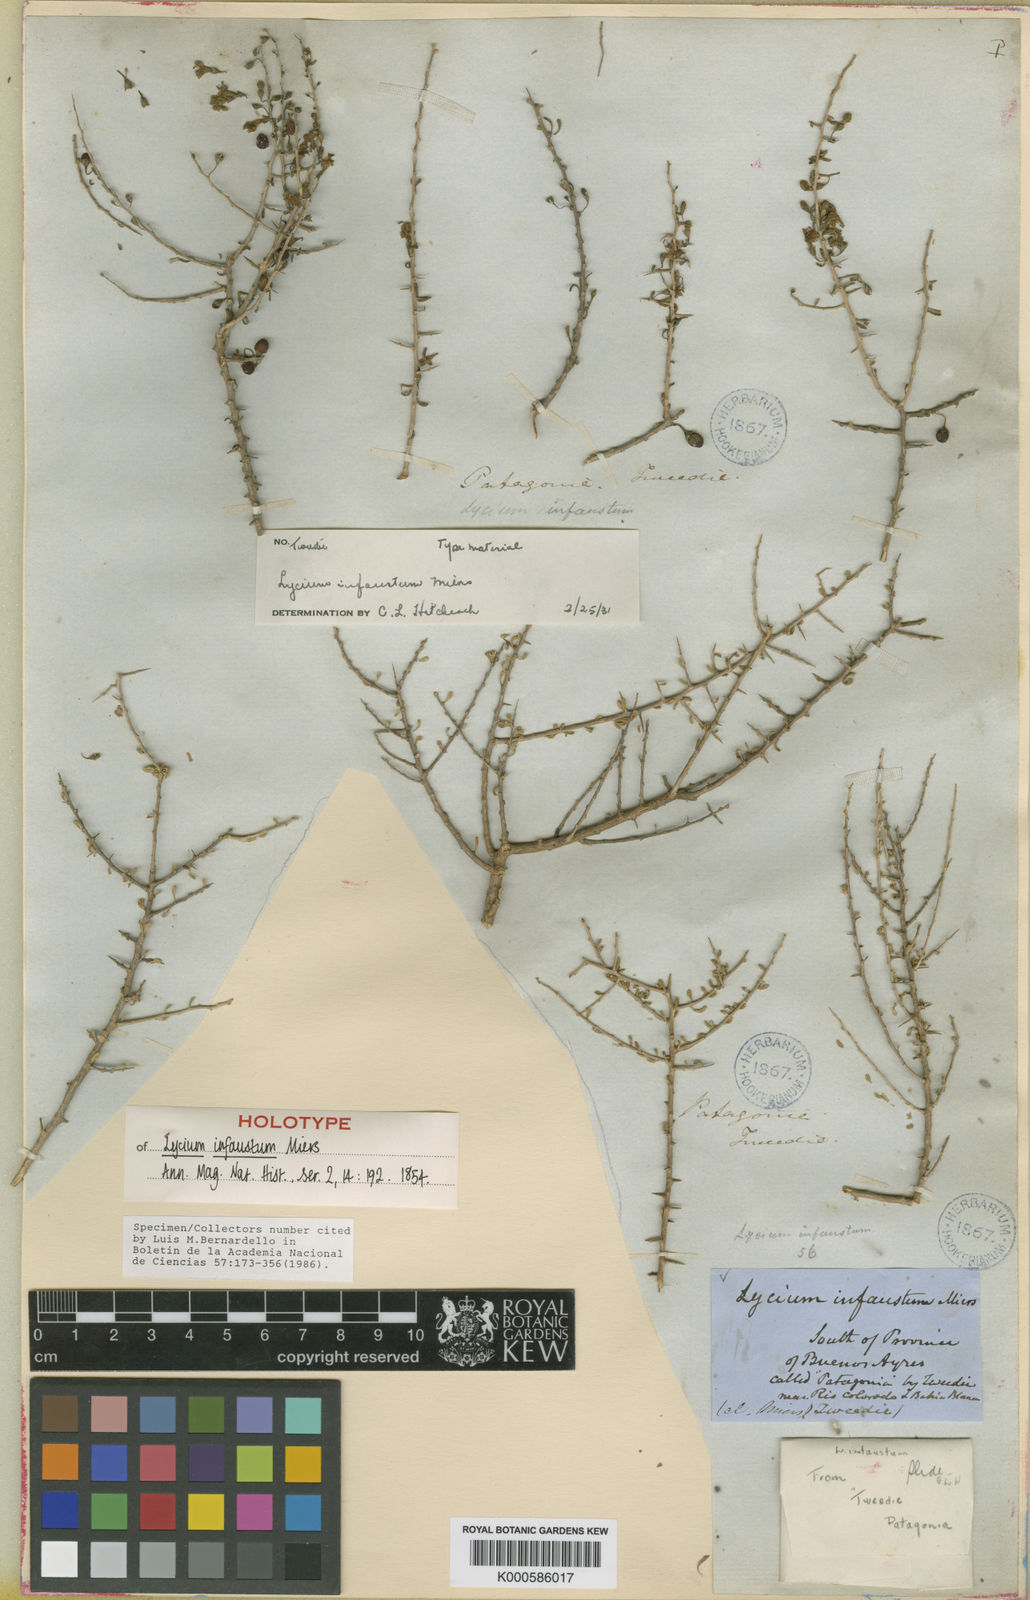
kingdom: Plantae
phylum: Tracheophyta
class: Magnoliopsida
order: Solanales
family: Solanaceae
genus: Lycium
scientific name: Lycium infaustum
